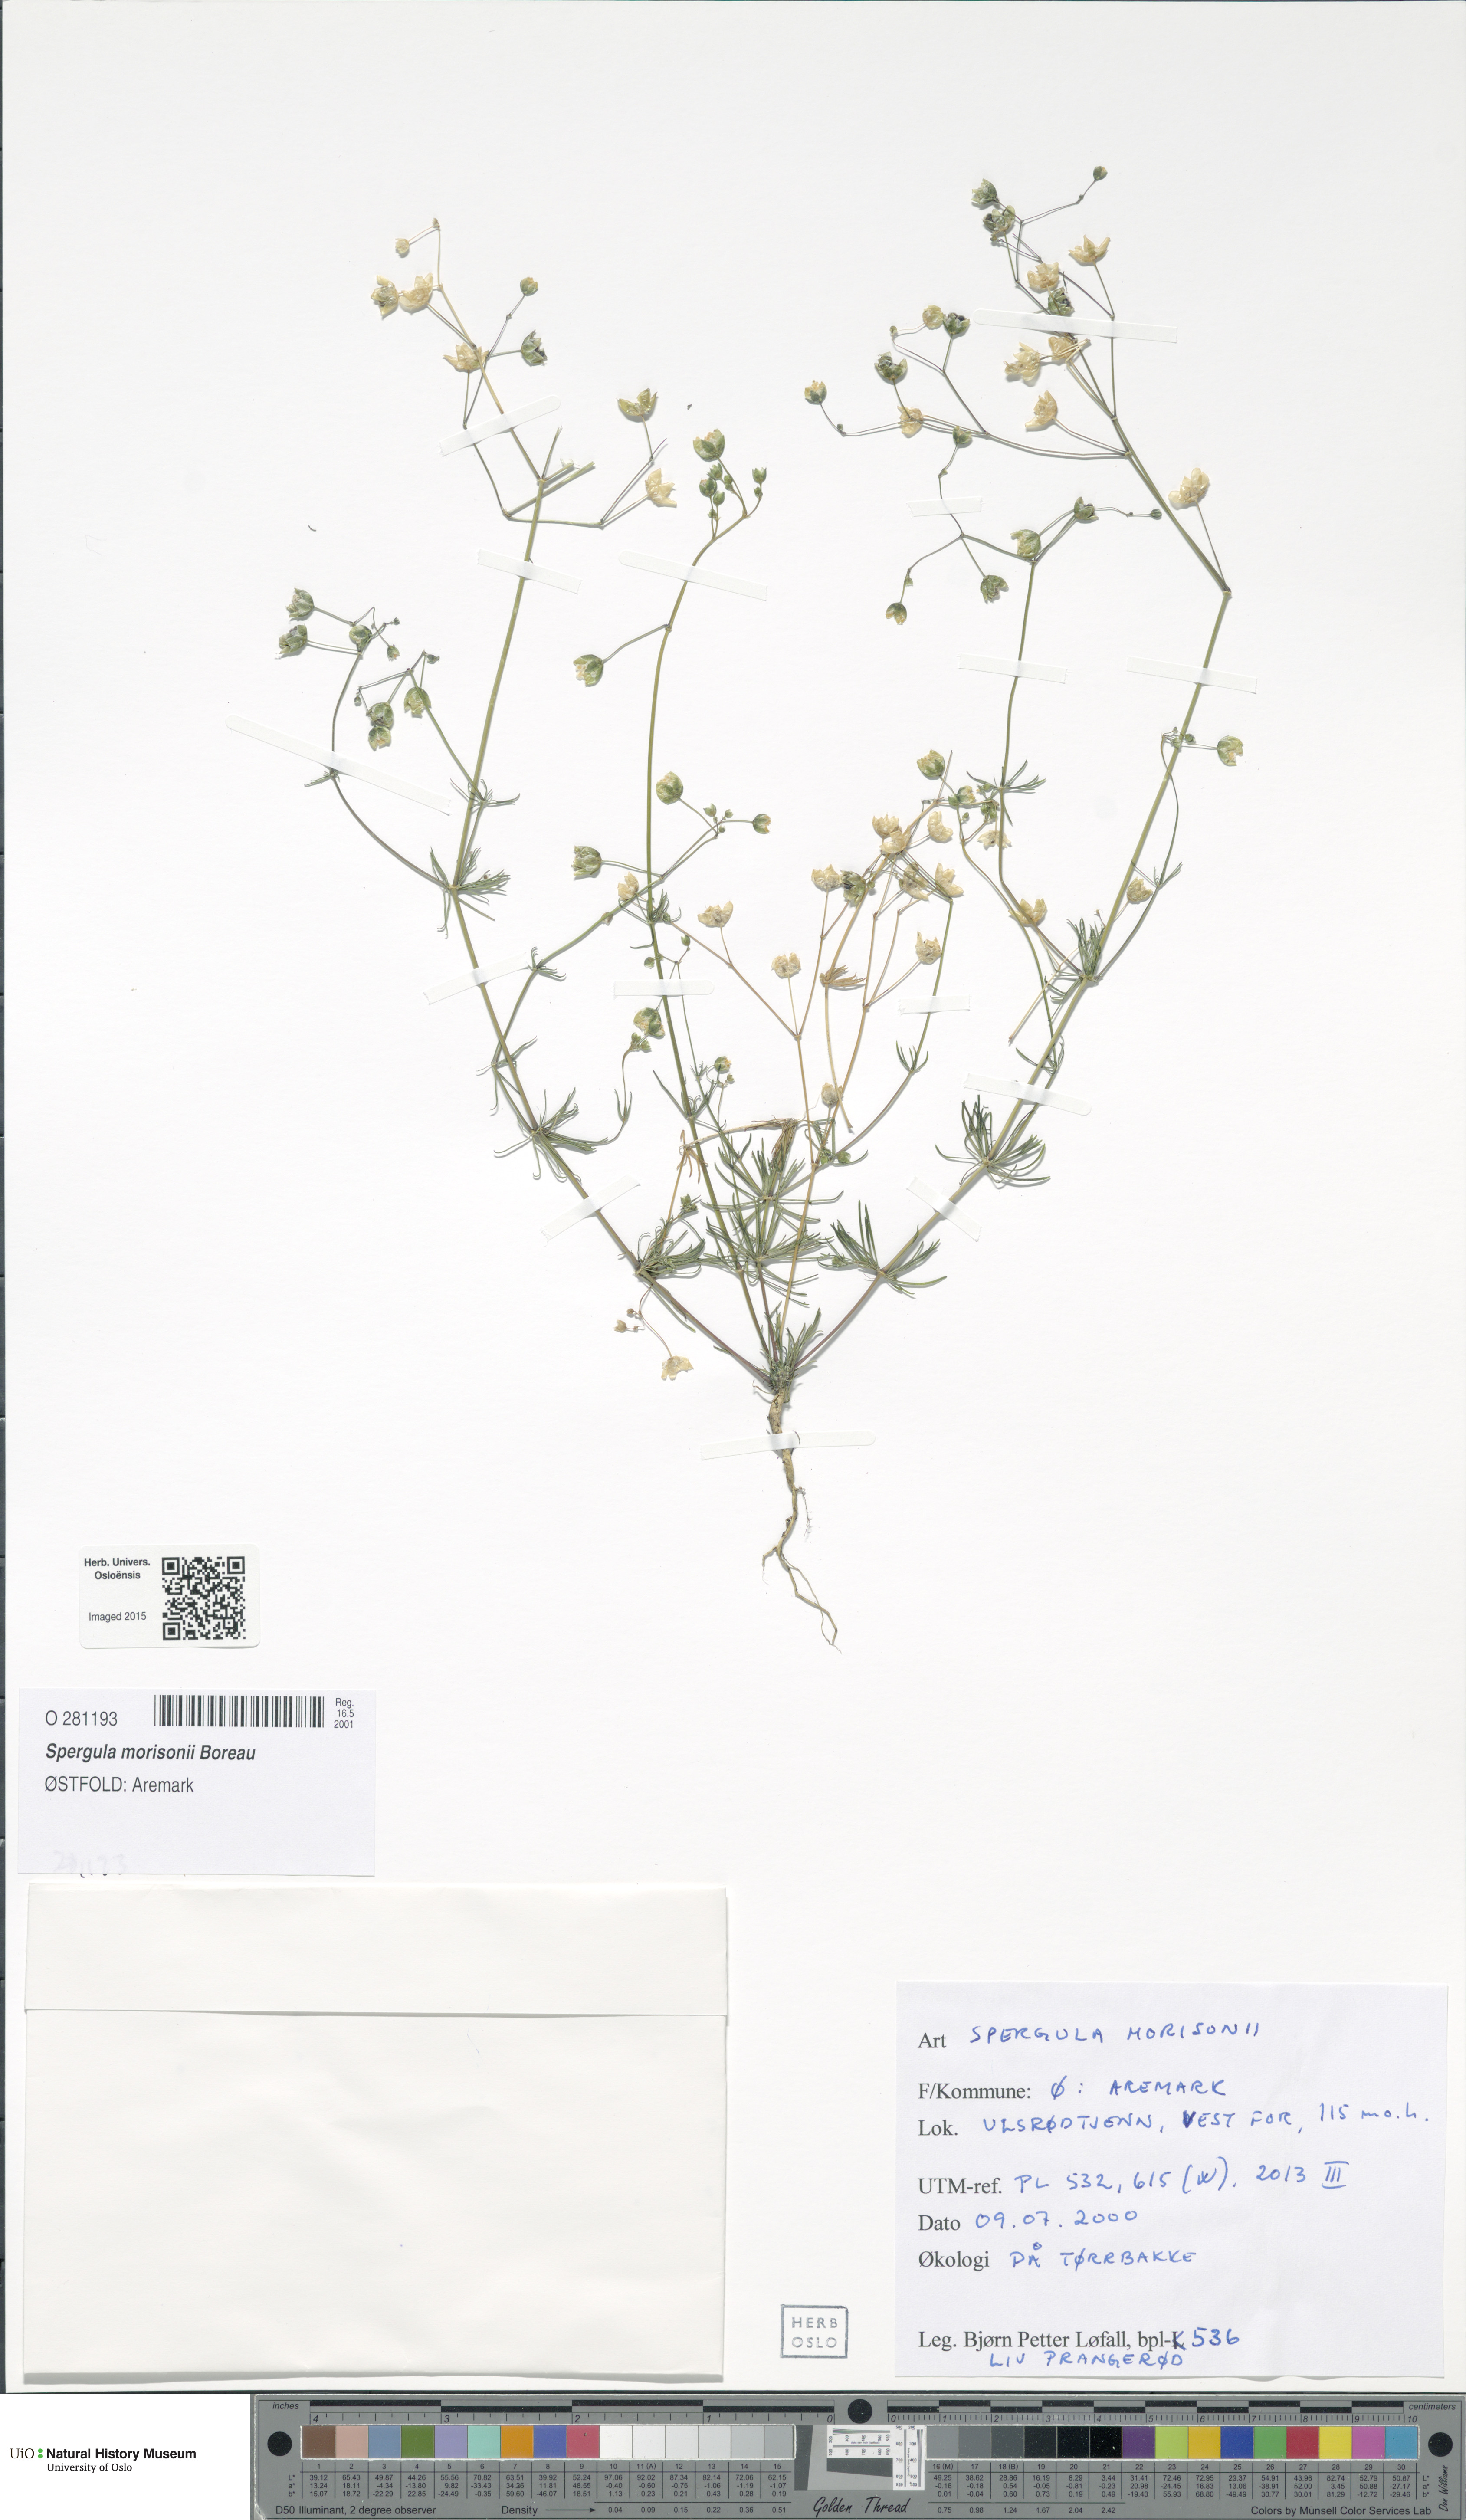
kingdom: Plantae
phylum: Tracheophyta
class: Magnoliopsida
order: Caryophyllales
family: Caryophyllaceae
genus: Spergula
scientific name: Spergula morisonii
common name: Pearlwort spurrey
